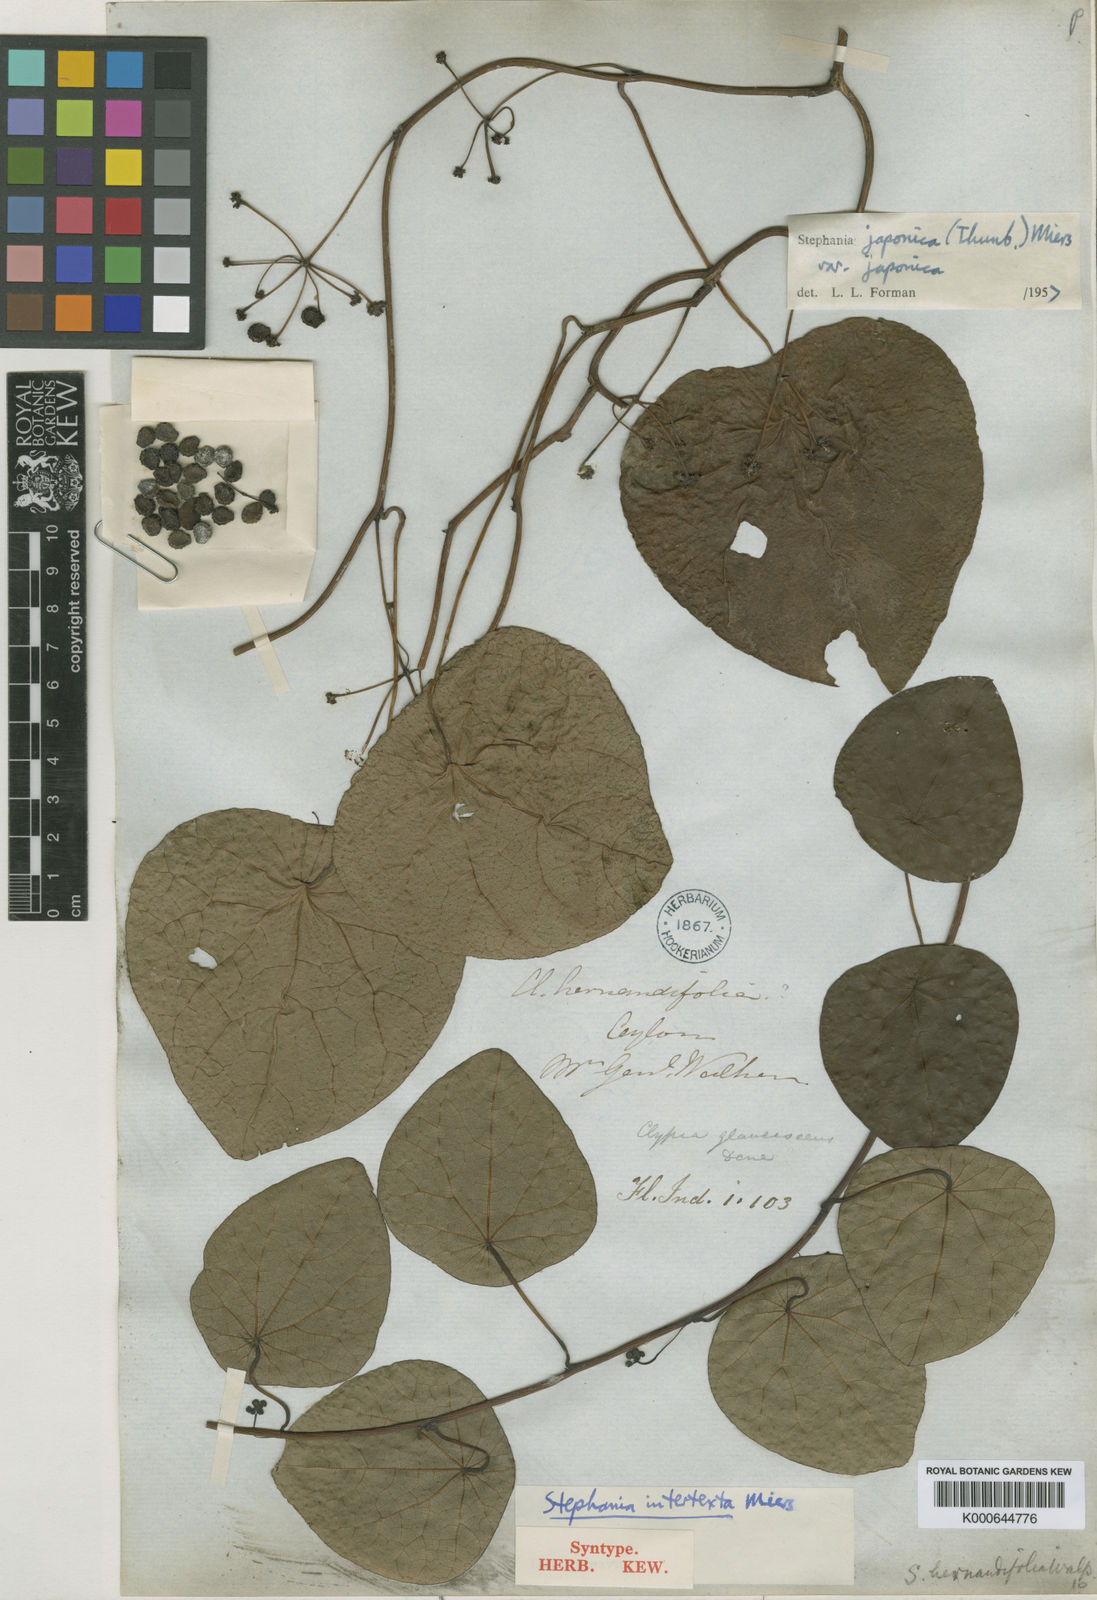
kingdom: Plantae
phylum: Tracheophyta
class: Magnoliopsida
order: Ranunculales
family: Menispermaceae
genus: Stephania
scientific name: Stephania japonica
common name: Snake vine
